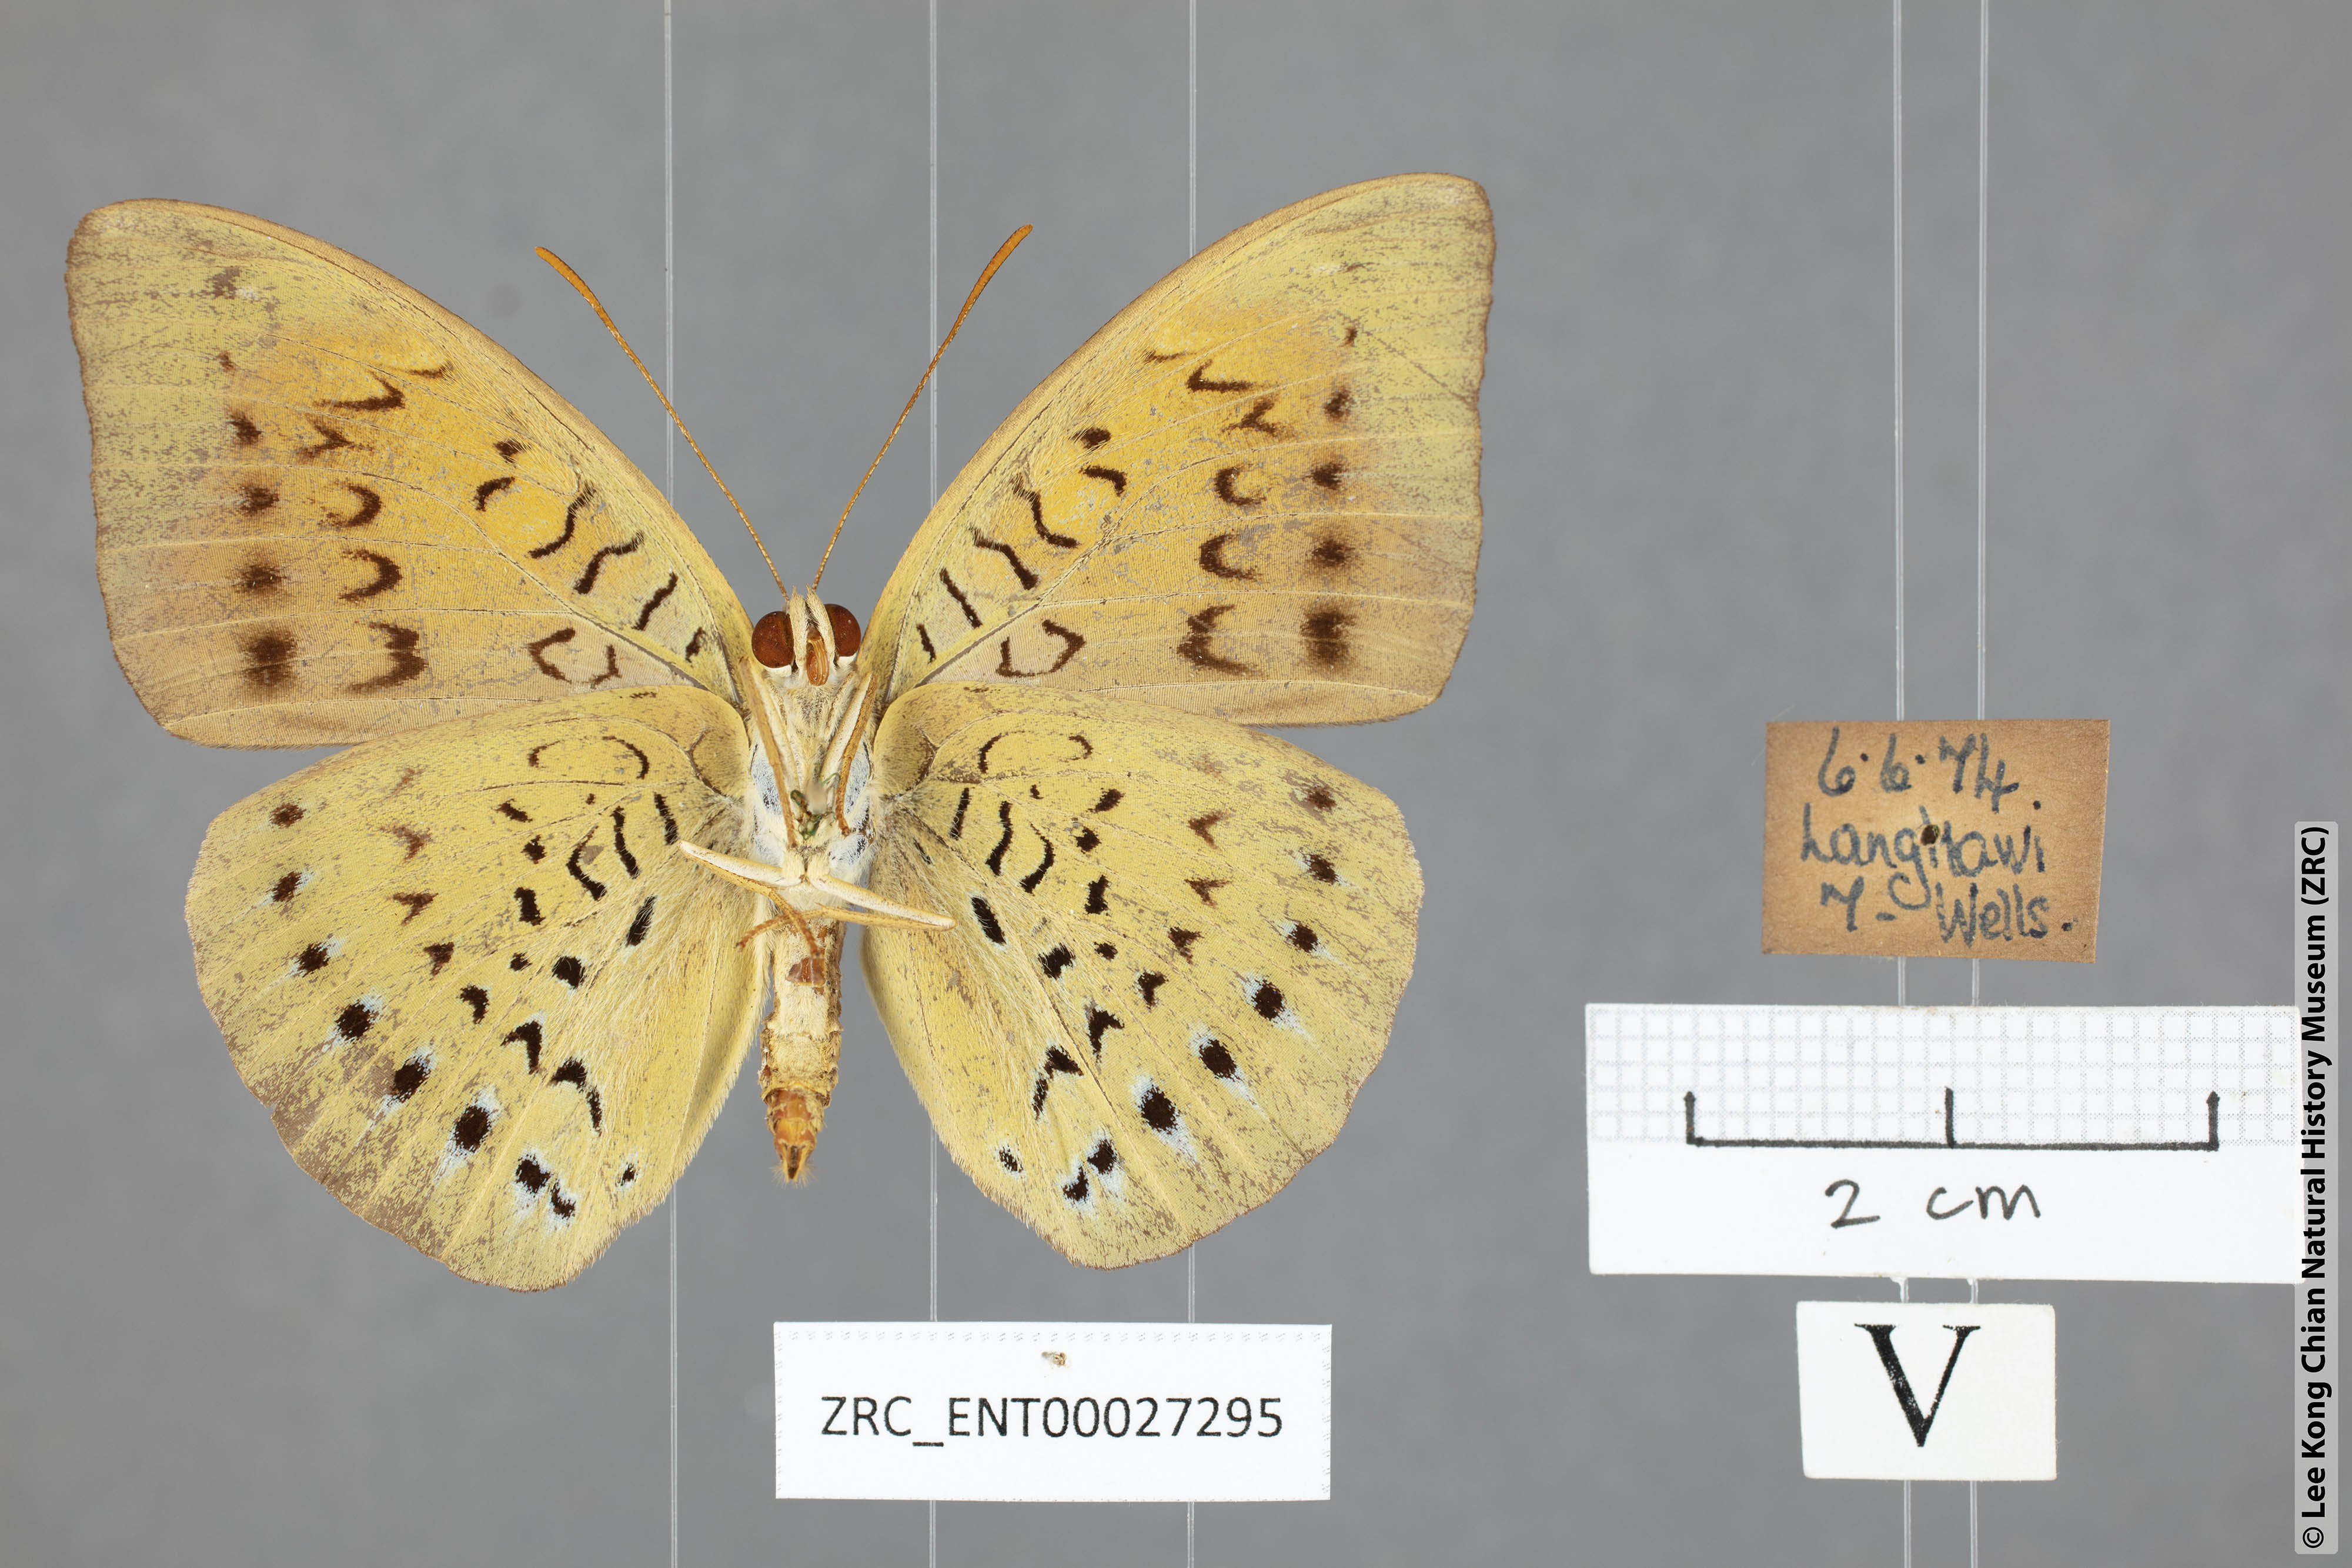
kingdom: Animalia
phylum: Arthropoda
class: Insecta
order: Lepidoptera
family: Nymphalidae
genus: Tanaecia
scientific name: Tanaecia julii
